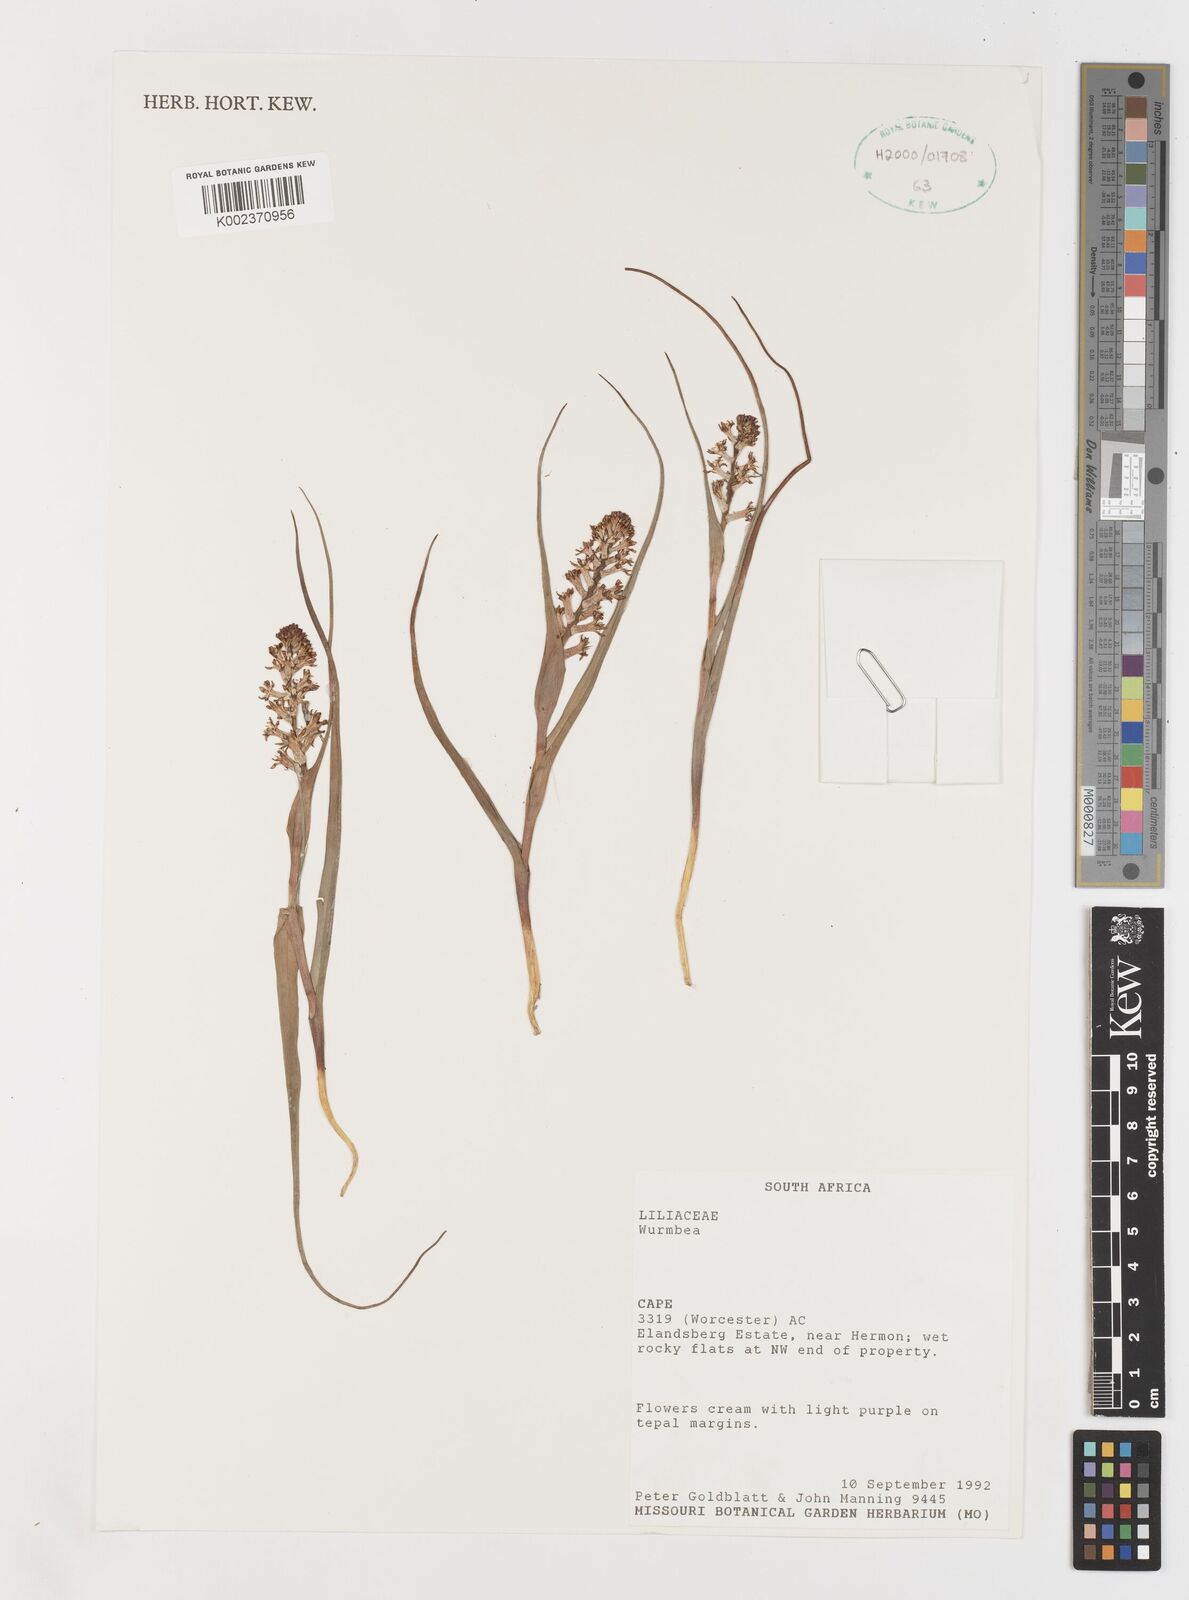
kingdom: Plantae
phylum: Tracheophyta
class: Liliopsida
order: Liliales
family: Colchicaceae
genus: Wurmbea
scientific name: Wurmbea
